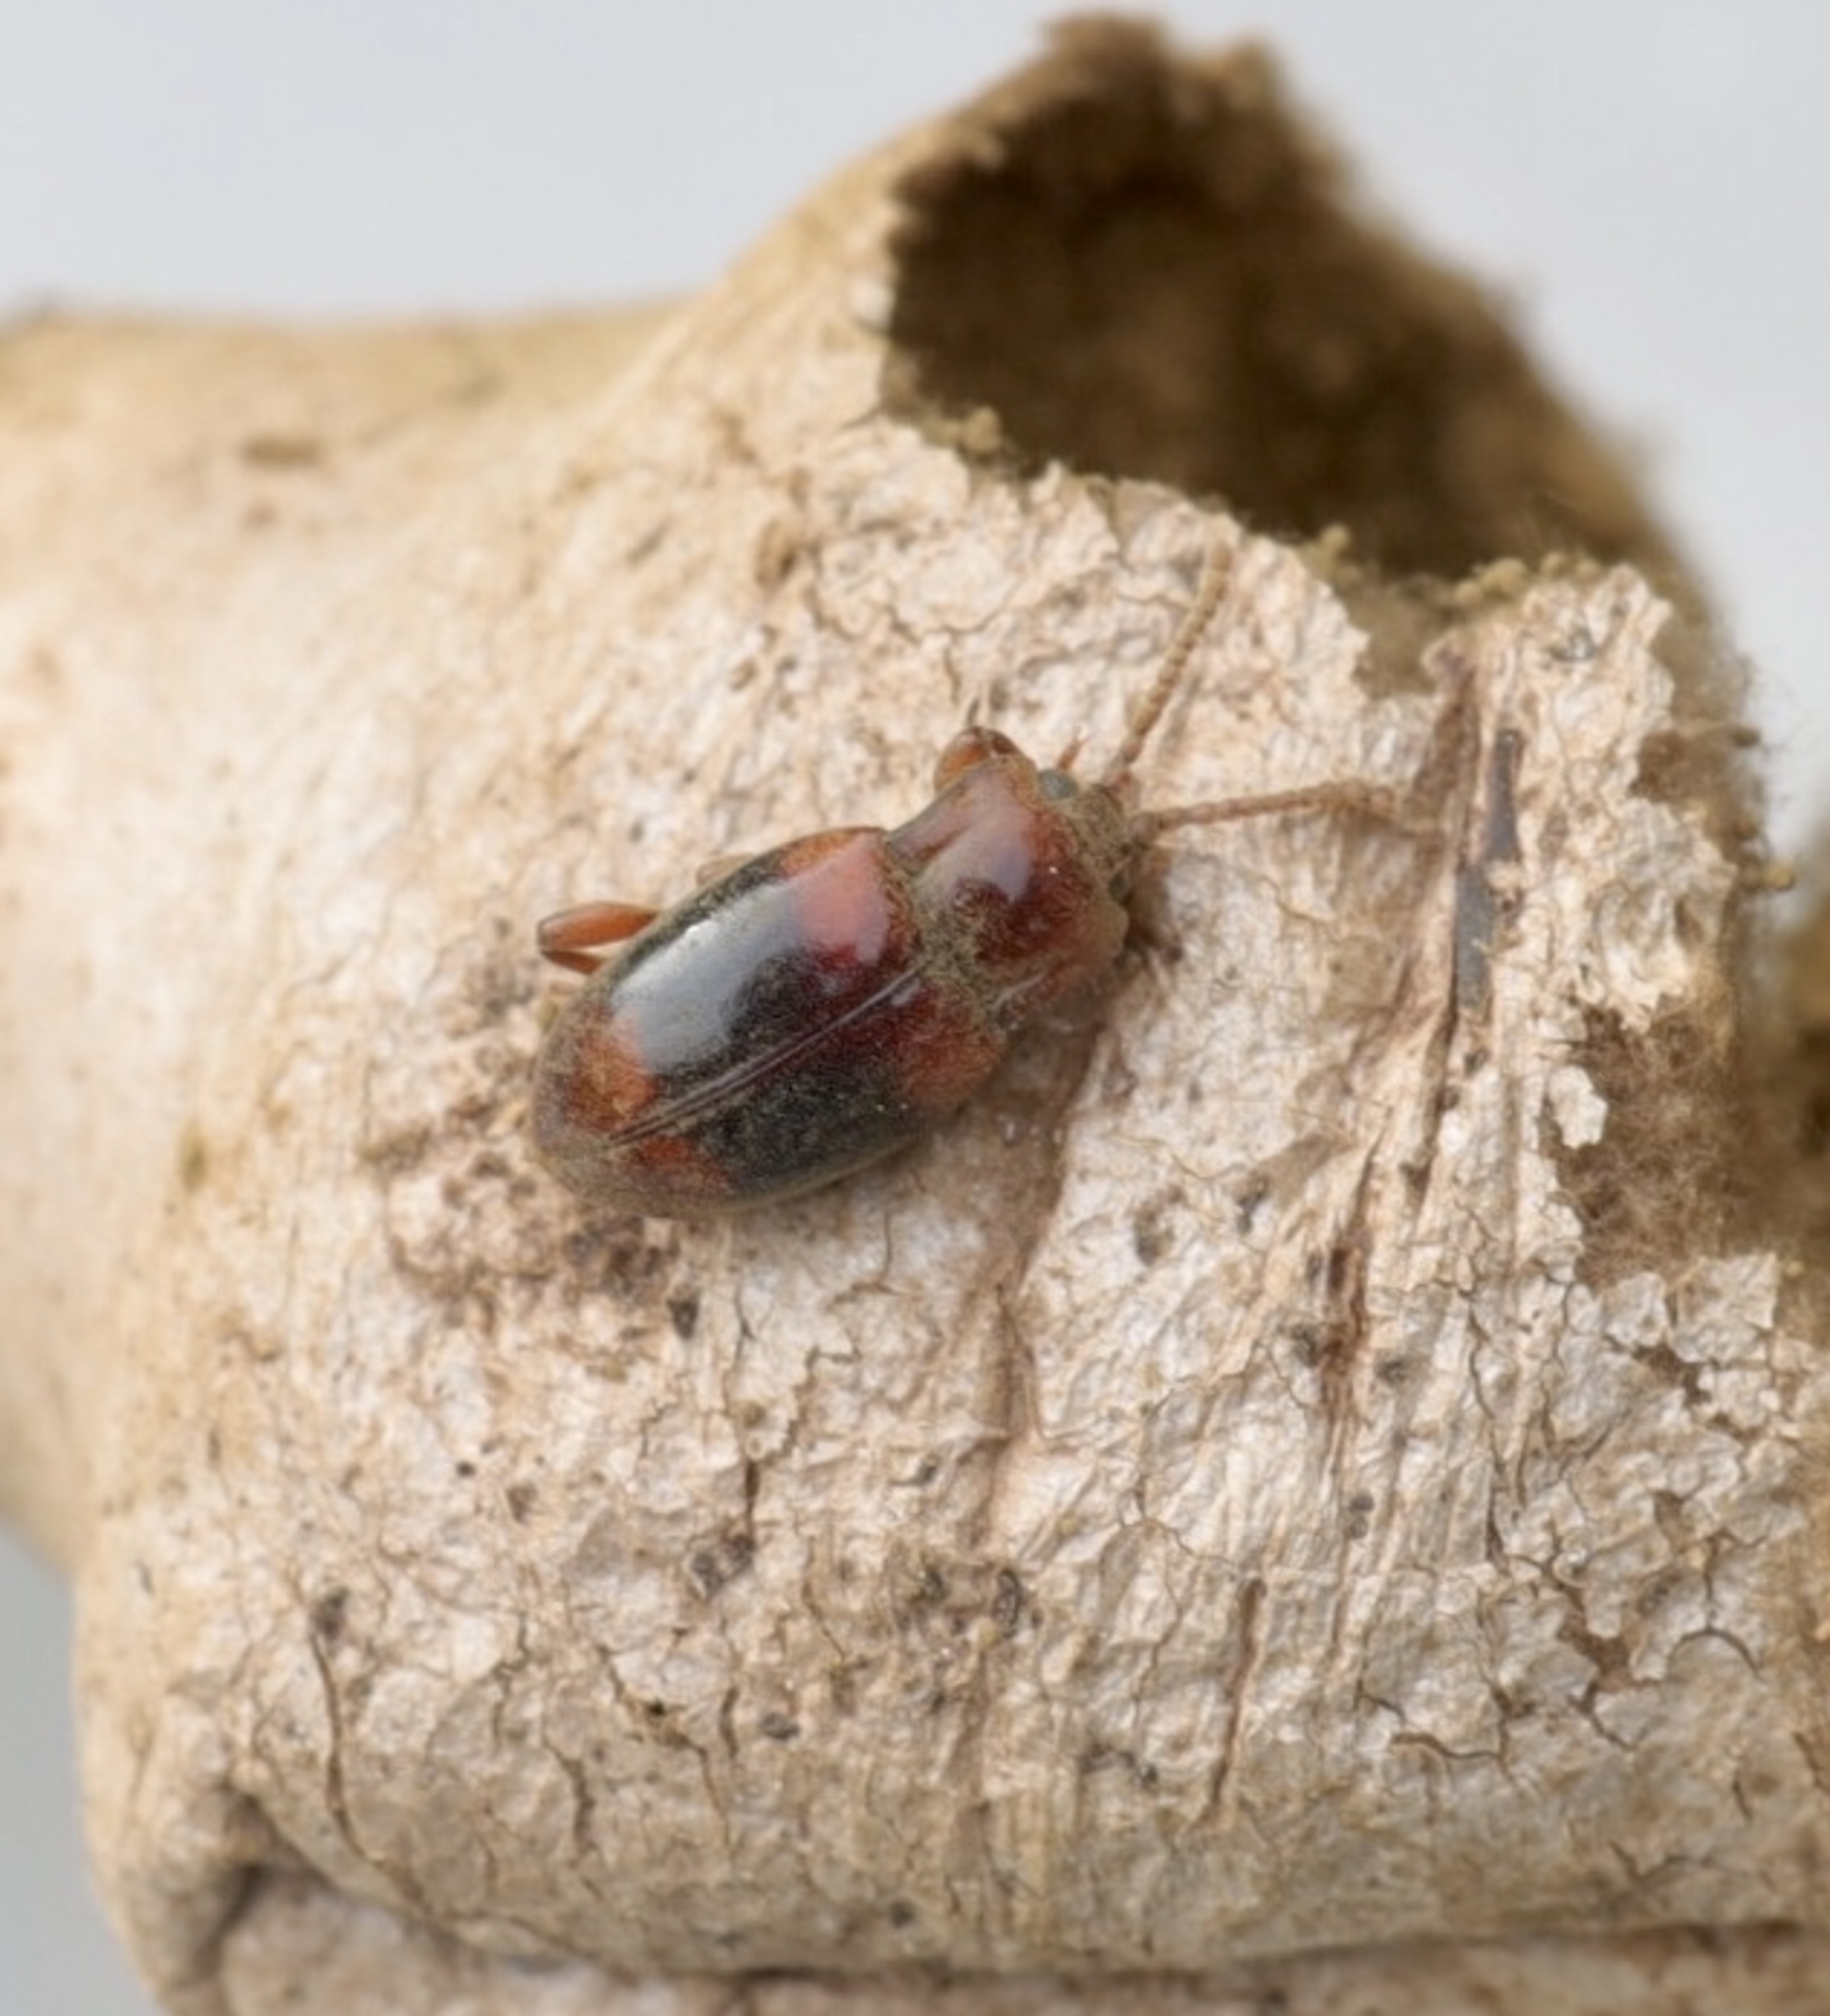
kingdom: Animalia
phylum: Arthropoda
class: Insecta
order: Coleoptera
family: Endomychidae
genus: Lycoperdina
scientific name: Lycoperdina succincta
